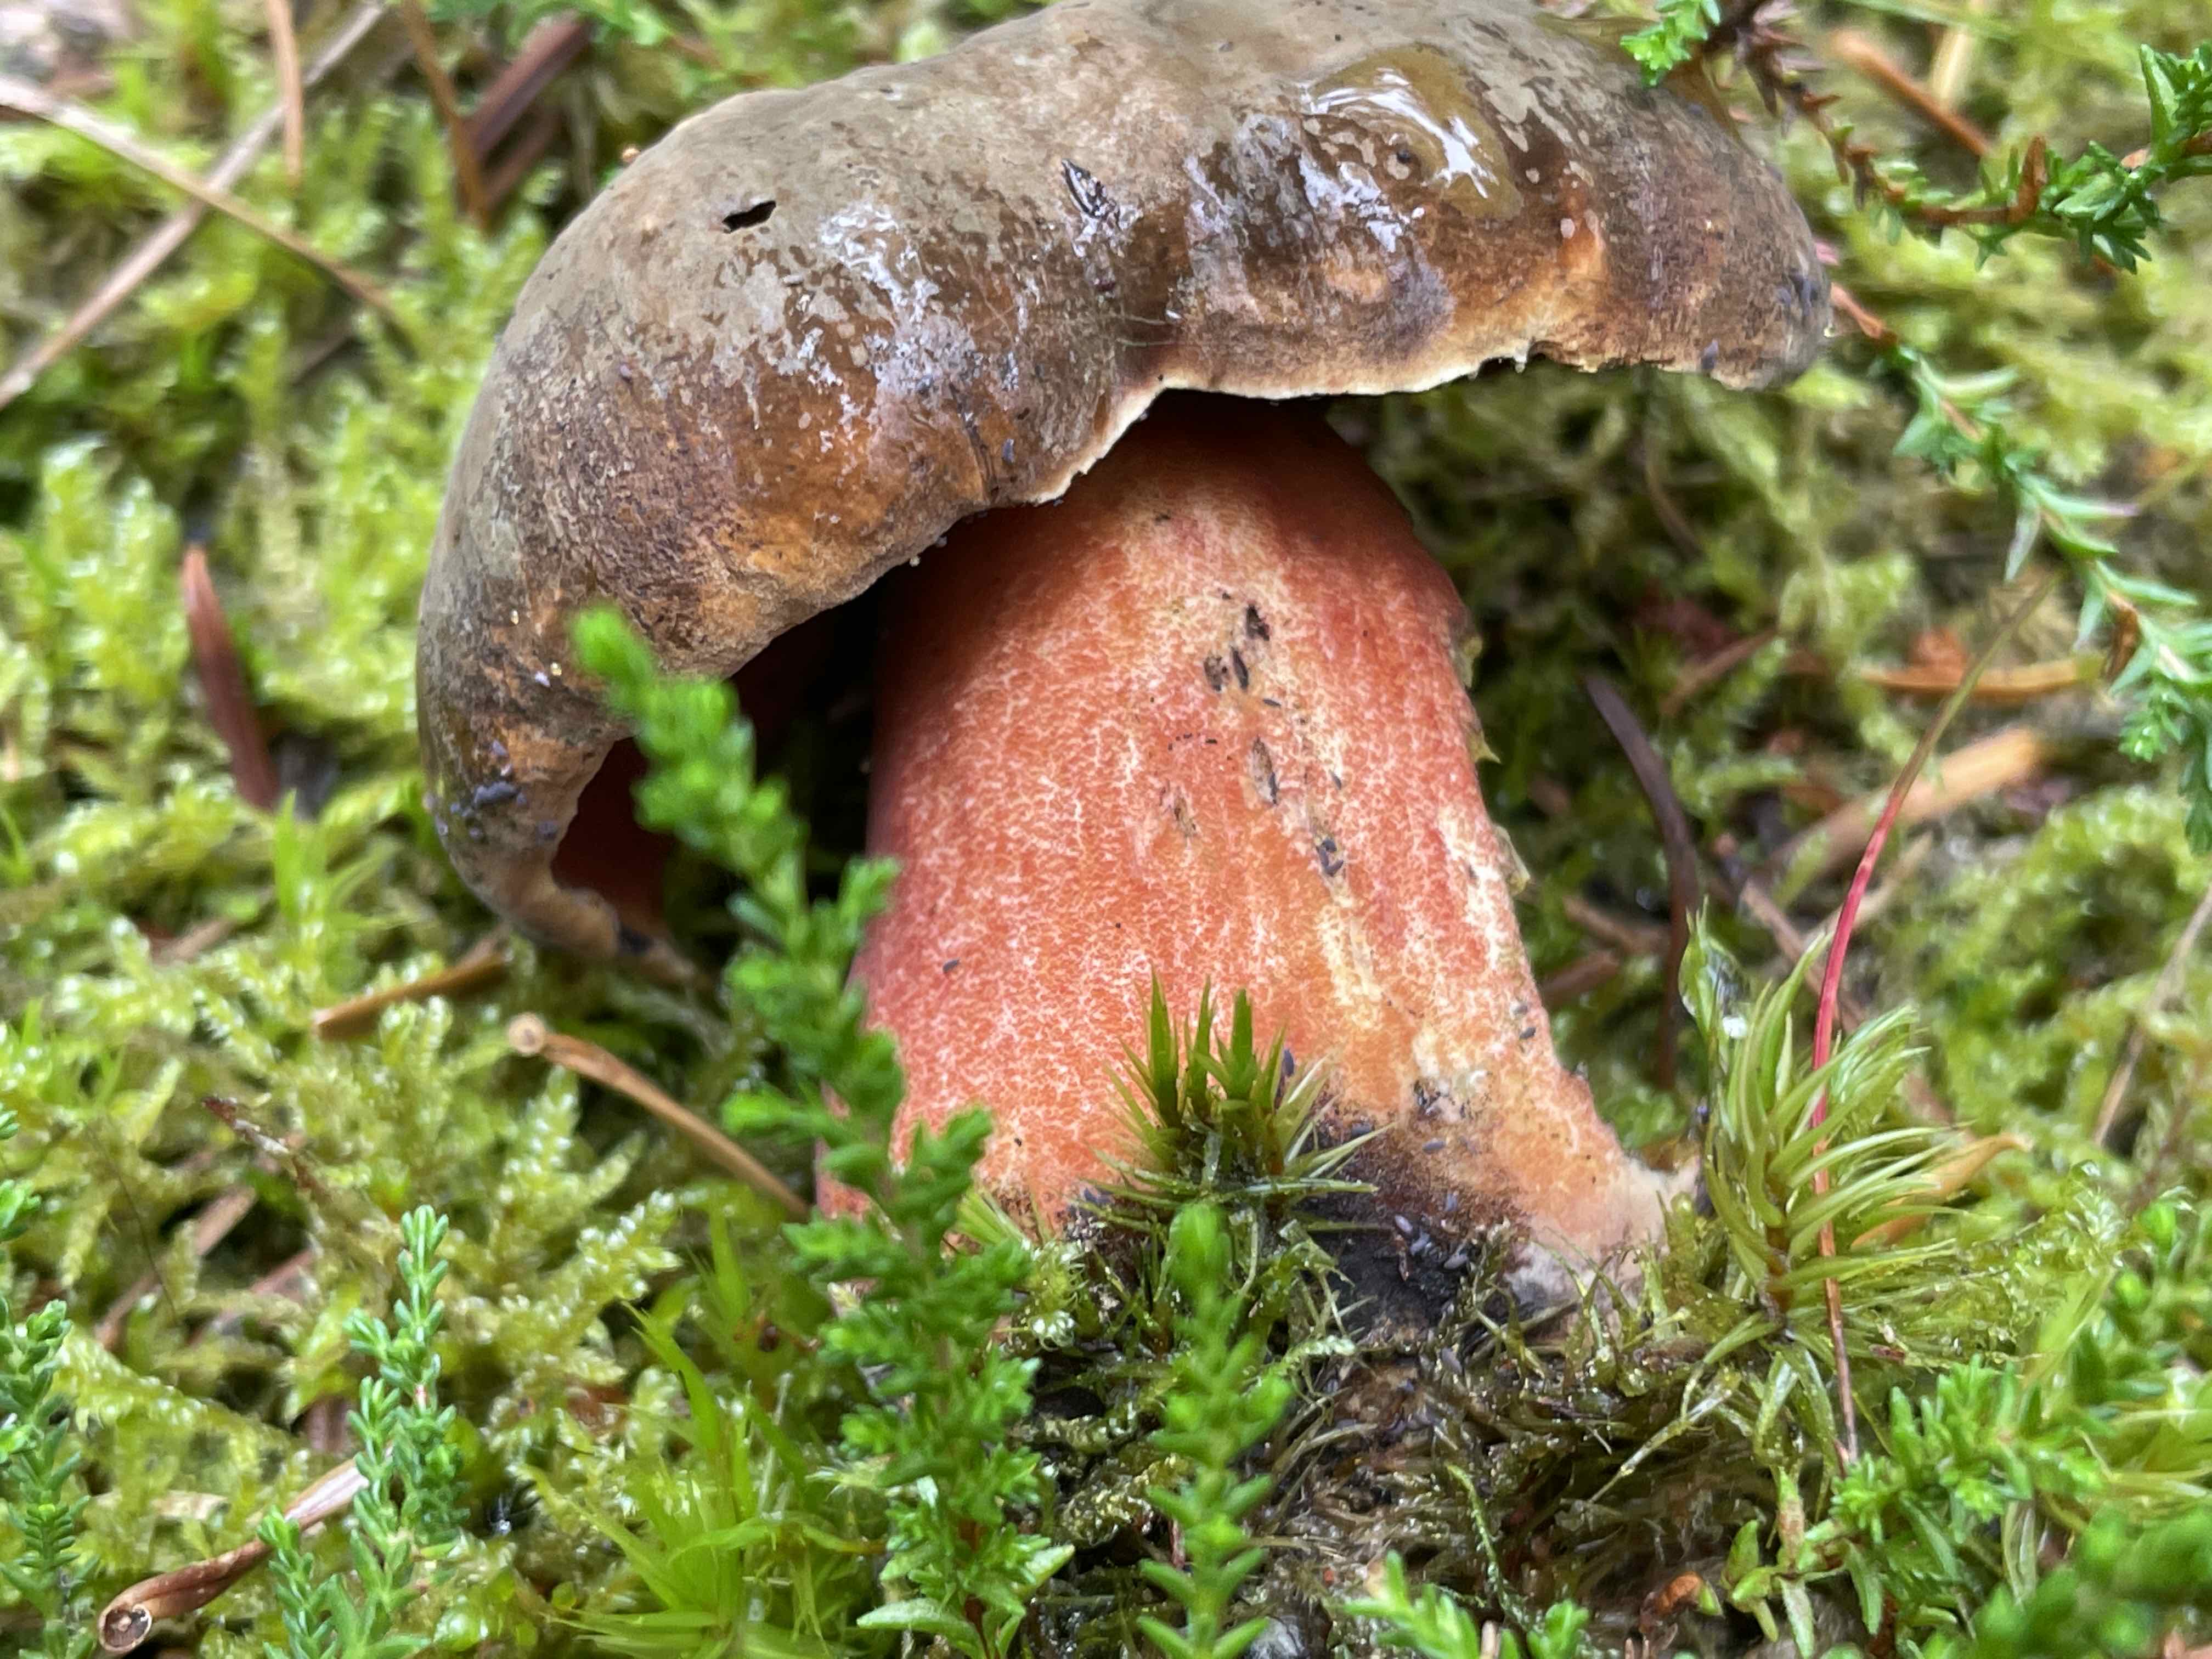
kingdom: Fungi
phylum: Basidiomycota
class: Agaricomycetes
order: Boletales
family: Boletaceae
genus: Neoboletus
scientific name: Neoboletus erythropus
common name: punktstokket indigorørhat
